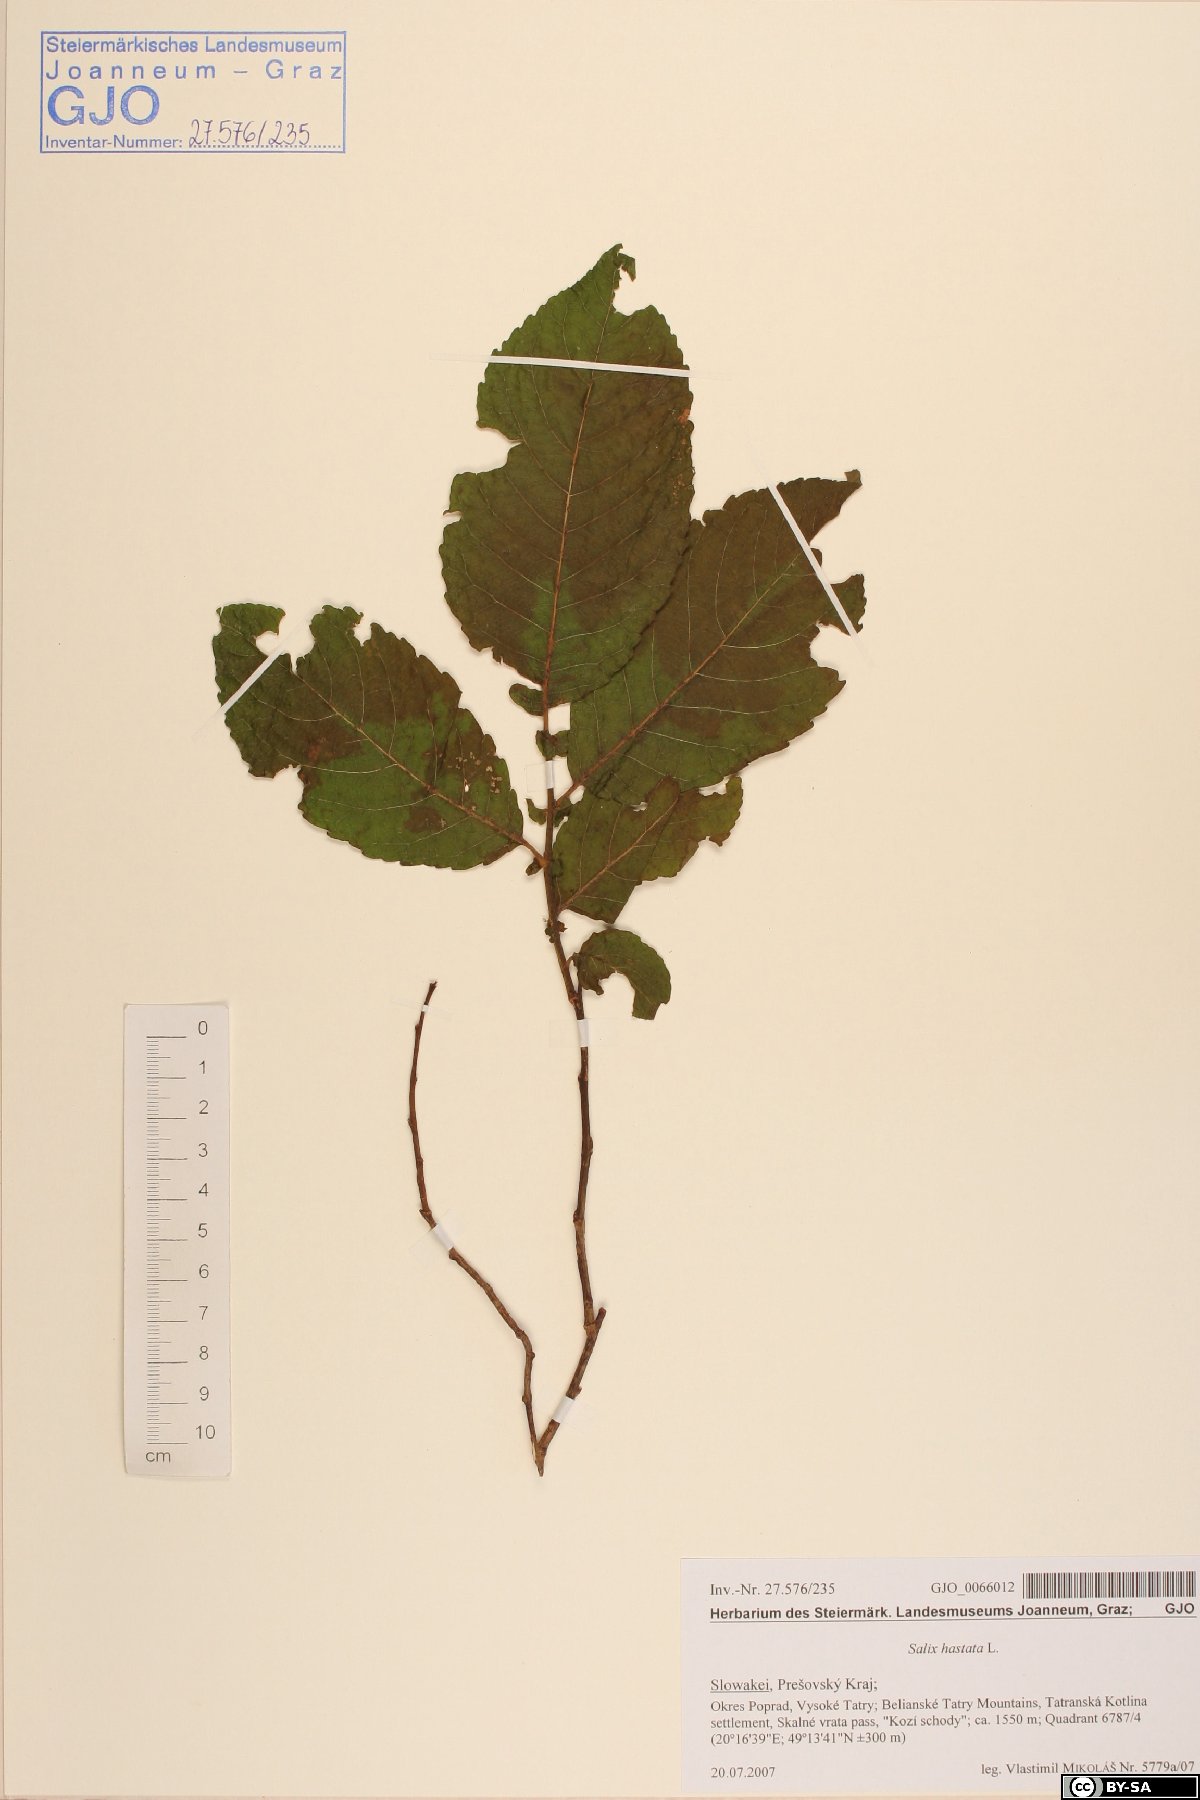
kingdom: Plantae
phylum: Tracheophyta
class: Magnoliopsida
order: Malpighiales
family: Salicaceae
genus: Salix
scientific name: Salix hastata
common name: Halberd willow
